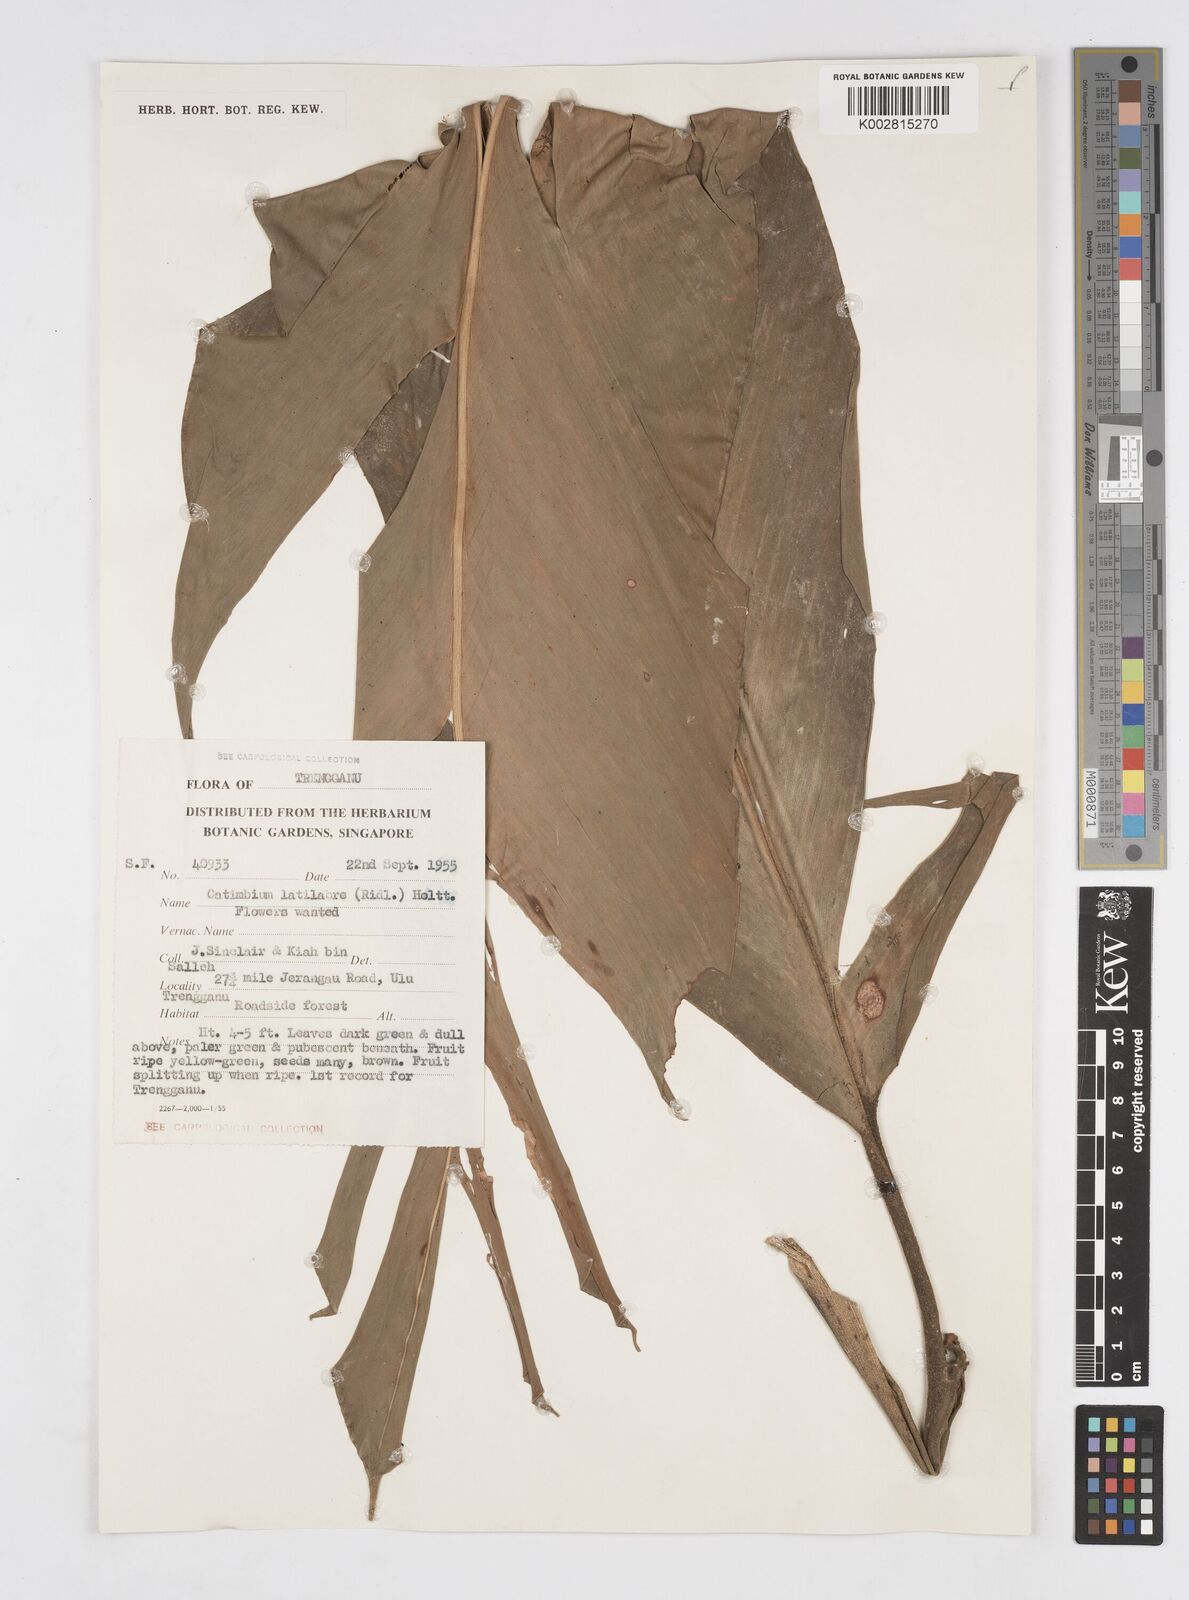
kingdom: Plantae
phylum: Tracheophyta
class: Liliopsida
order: Zingiberales
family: Zingiberaceae
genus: Alpinia
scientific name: Alpinia latilabris
